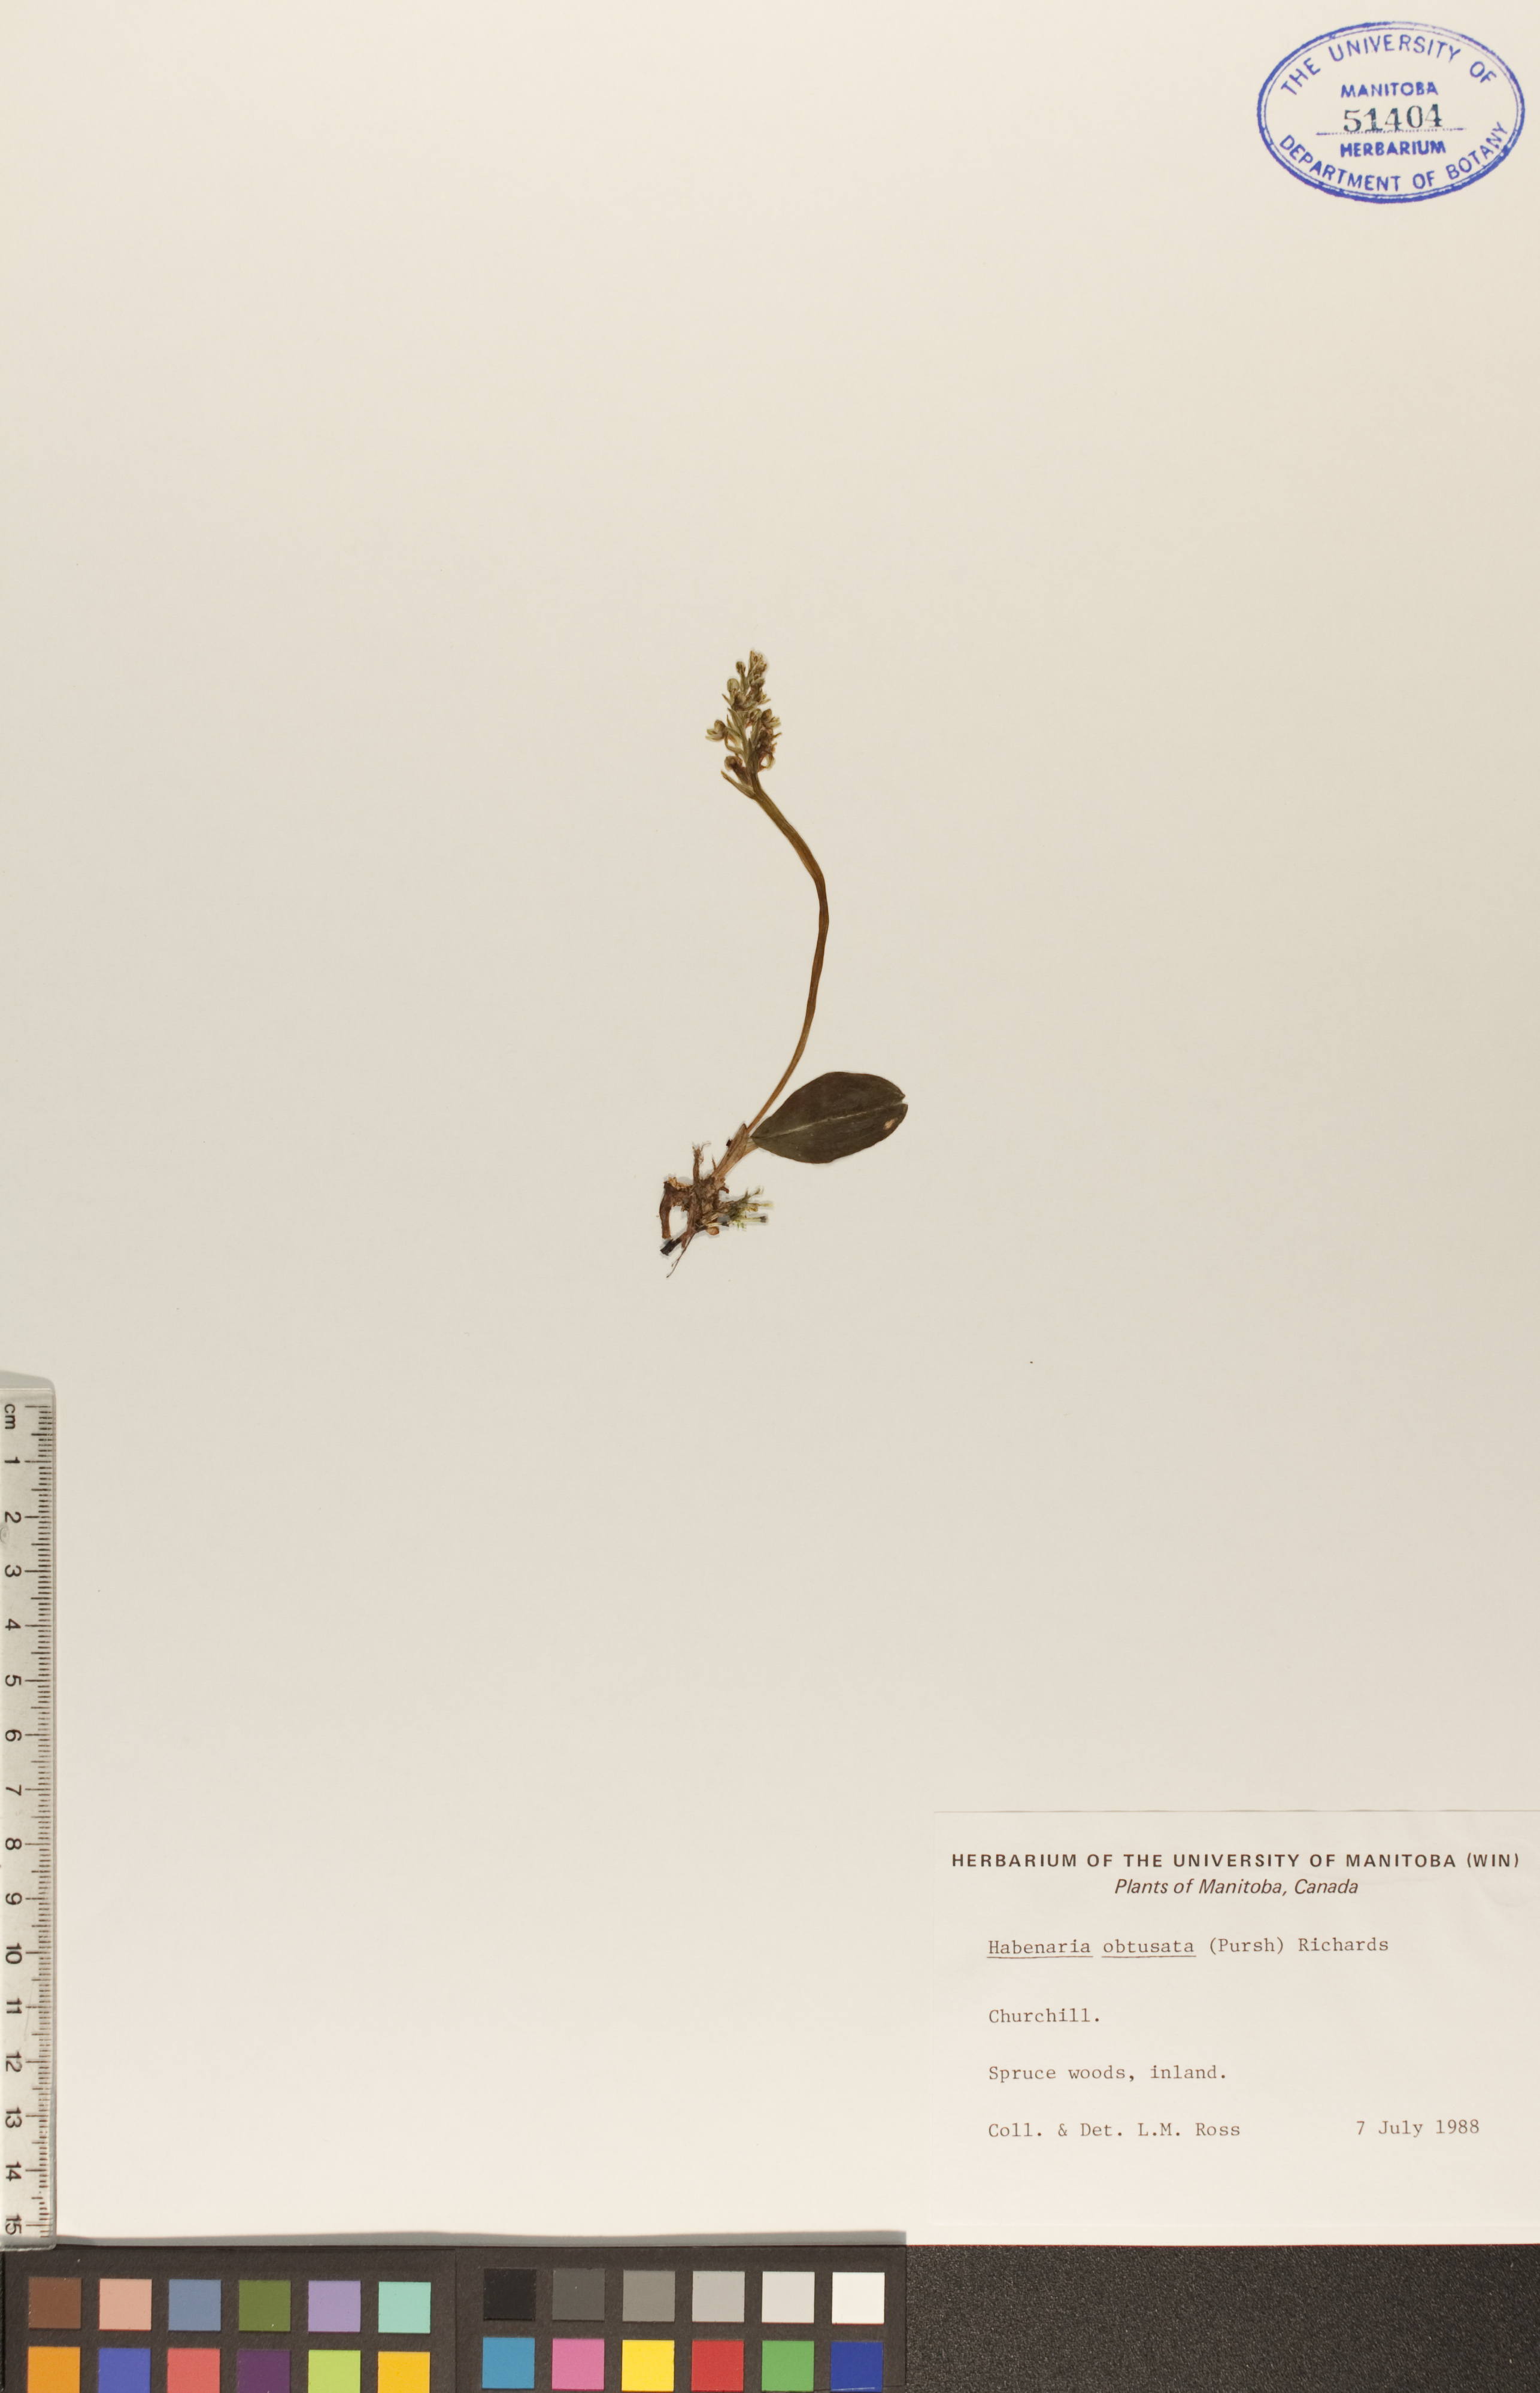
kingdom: Plantae
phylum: Tracheophyta
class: Liliopsida
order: Asparagales
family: Orchidaceae
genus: Platanthera
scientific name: Platanthera obtusata
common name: Blunt bog orchid
